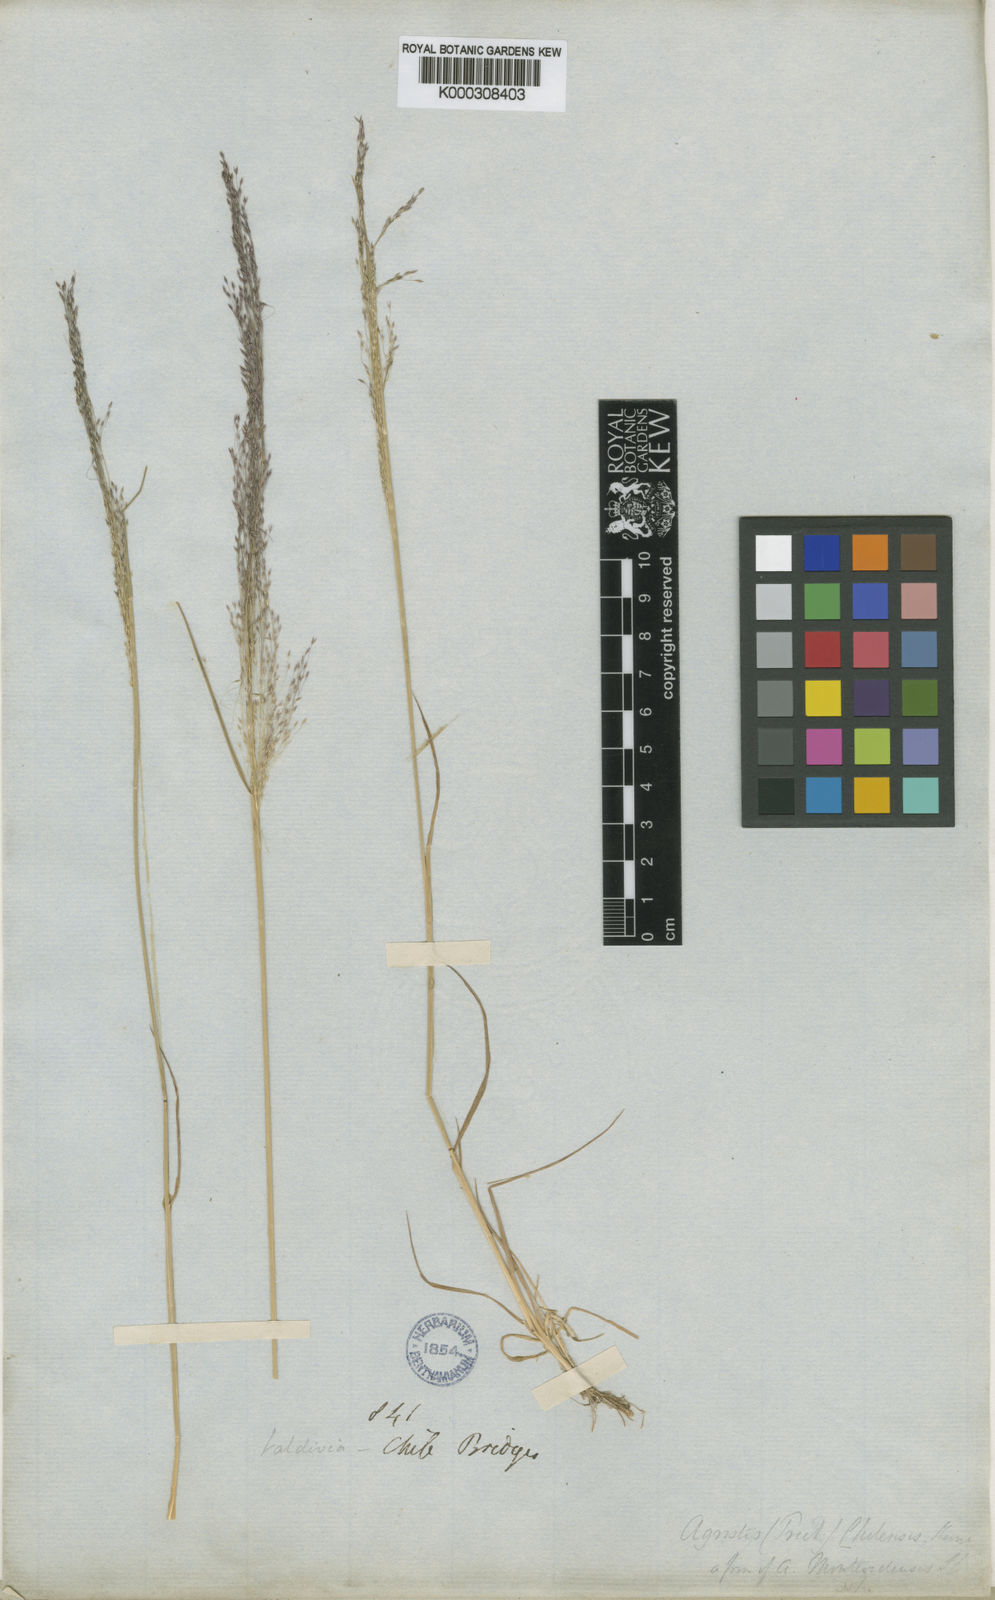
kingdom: Plantae
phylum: Tracheophyta
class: Liliopsida
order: Poales
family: Poaceae
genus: Agrostis
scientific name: Agrostis umbellata
